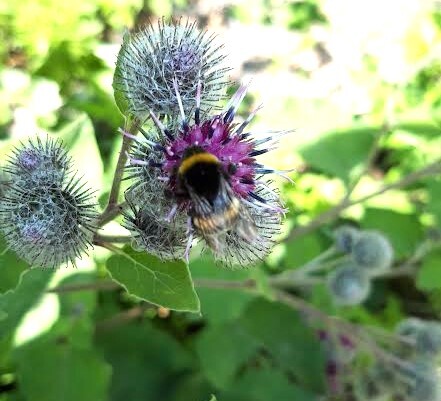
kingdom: Animalia
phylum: Arthropoda
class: Insecta
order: Hymenoptera
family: Apidae
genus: Bombus
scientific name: Bombus terrestris
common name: Buff-tailed bumblebee
